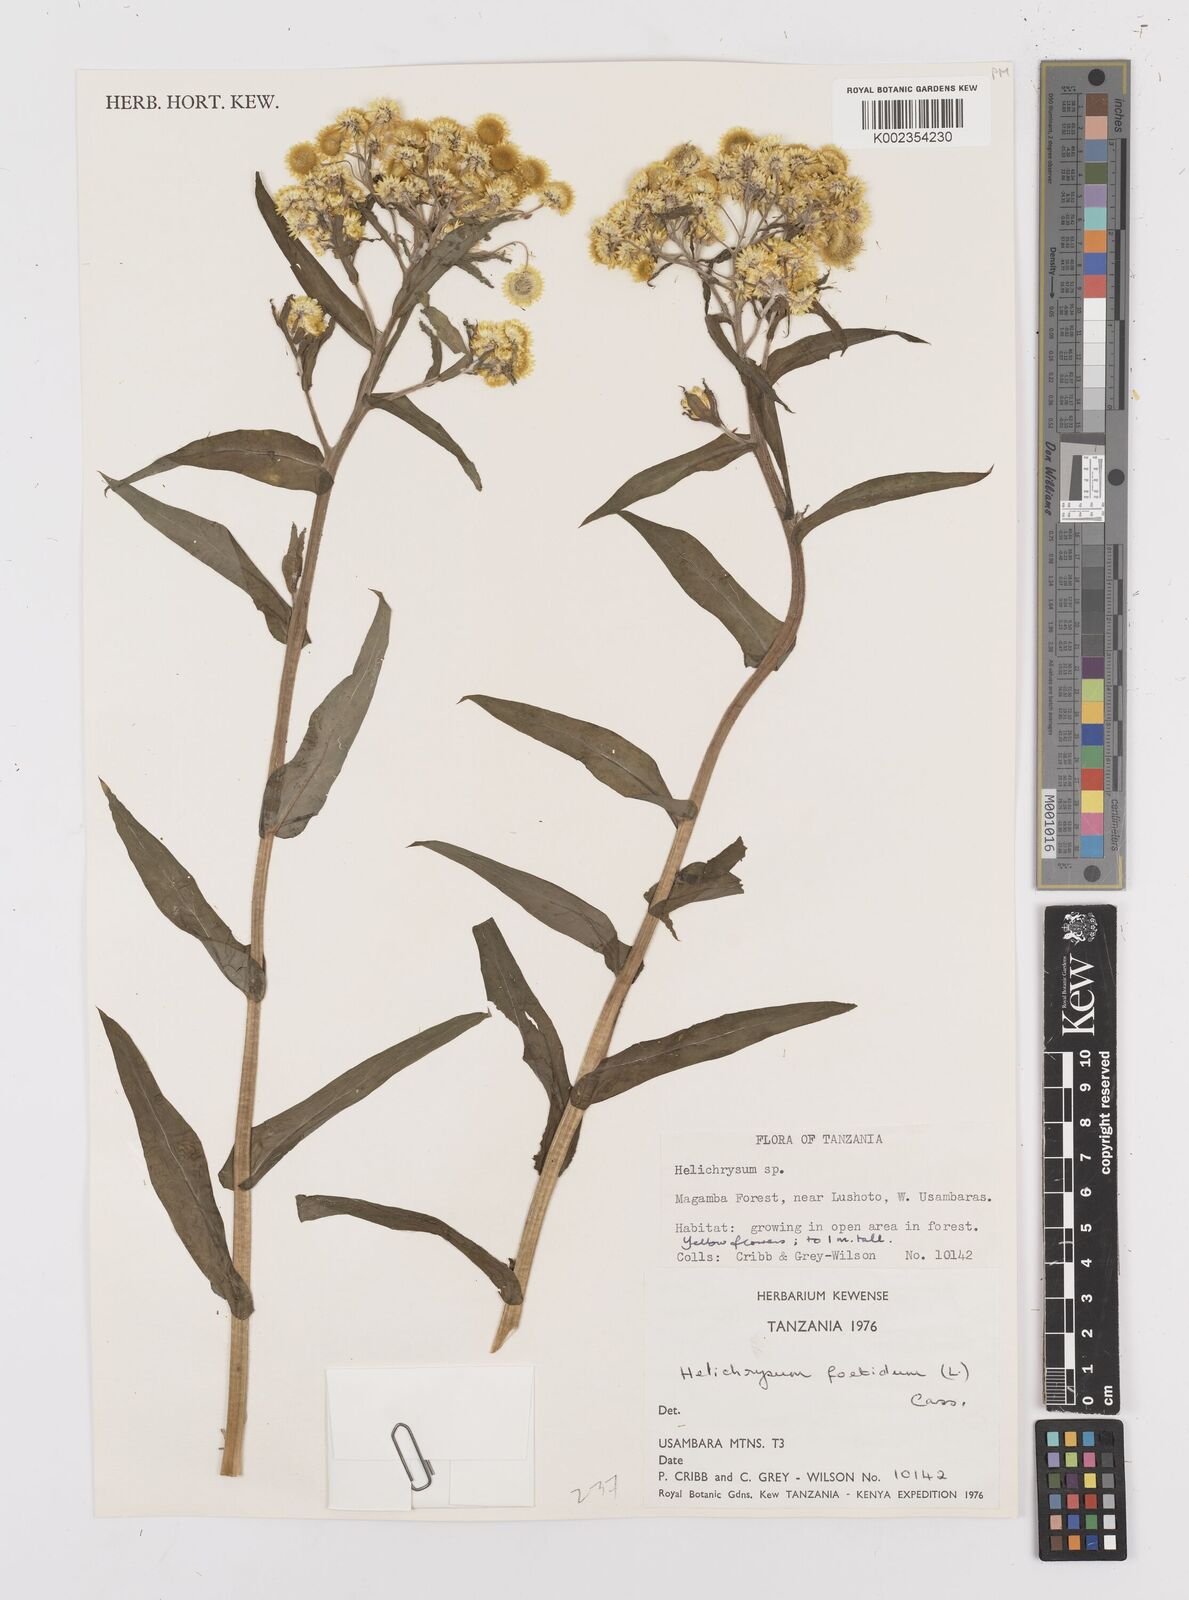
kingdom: Plantae
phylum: Tracheophyta
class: Magnoliopsida
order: Asterales
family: Asteraceae
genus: Helichrysum
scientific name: Helichrysum
